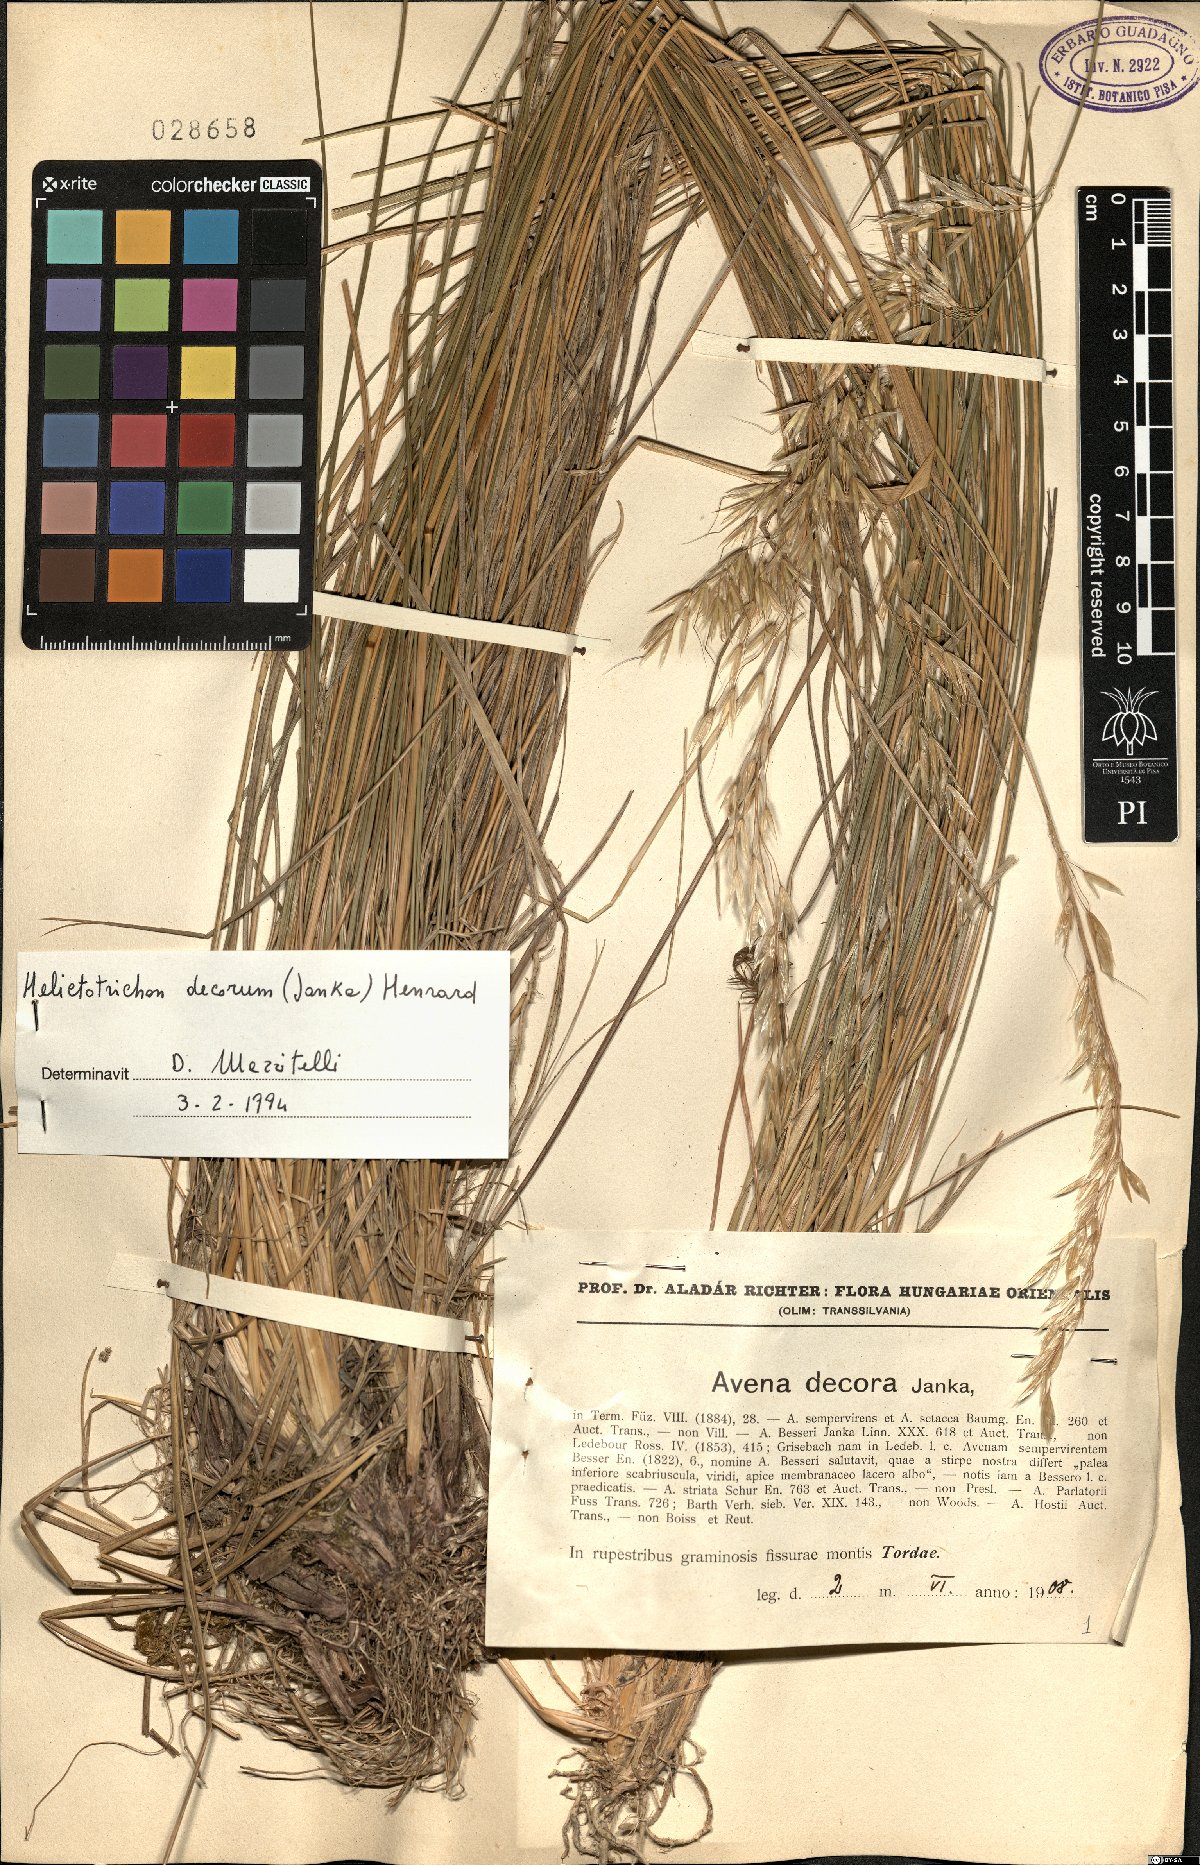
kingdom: Plantae
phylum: Tracheophyta
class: Liliopsida
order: Poales
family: Poaceae
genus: Helictotrichon
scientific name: Helictotrichon decorum
